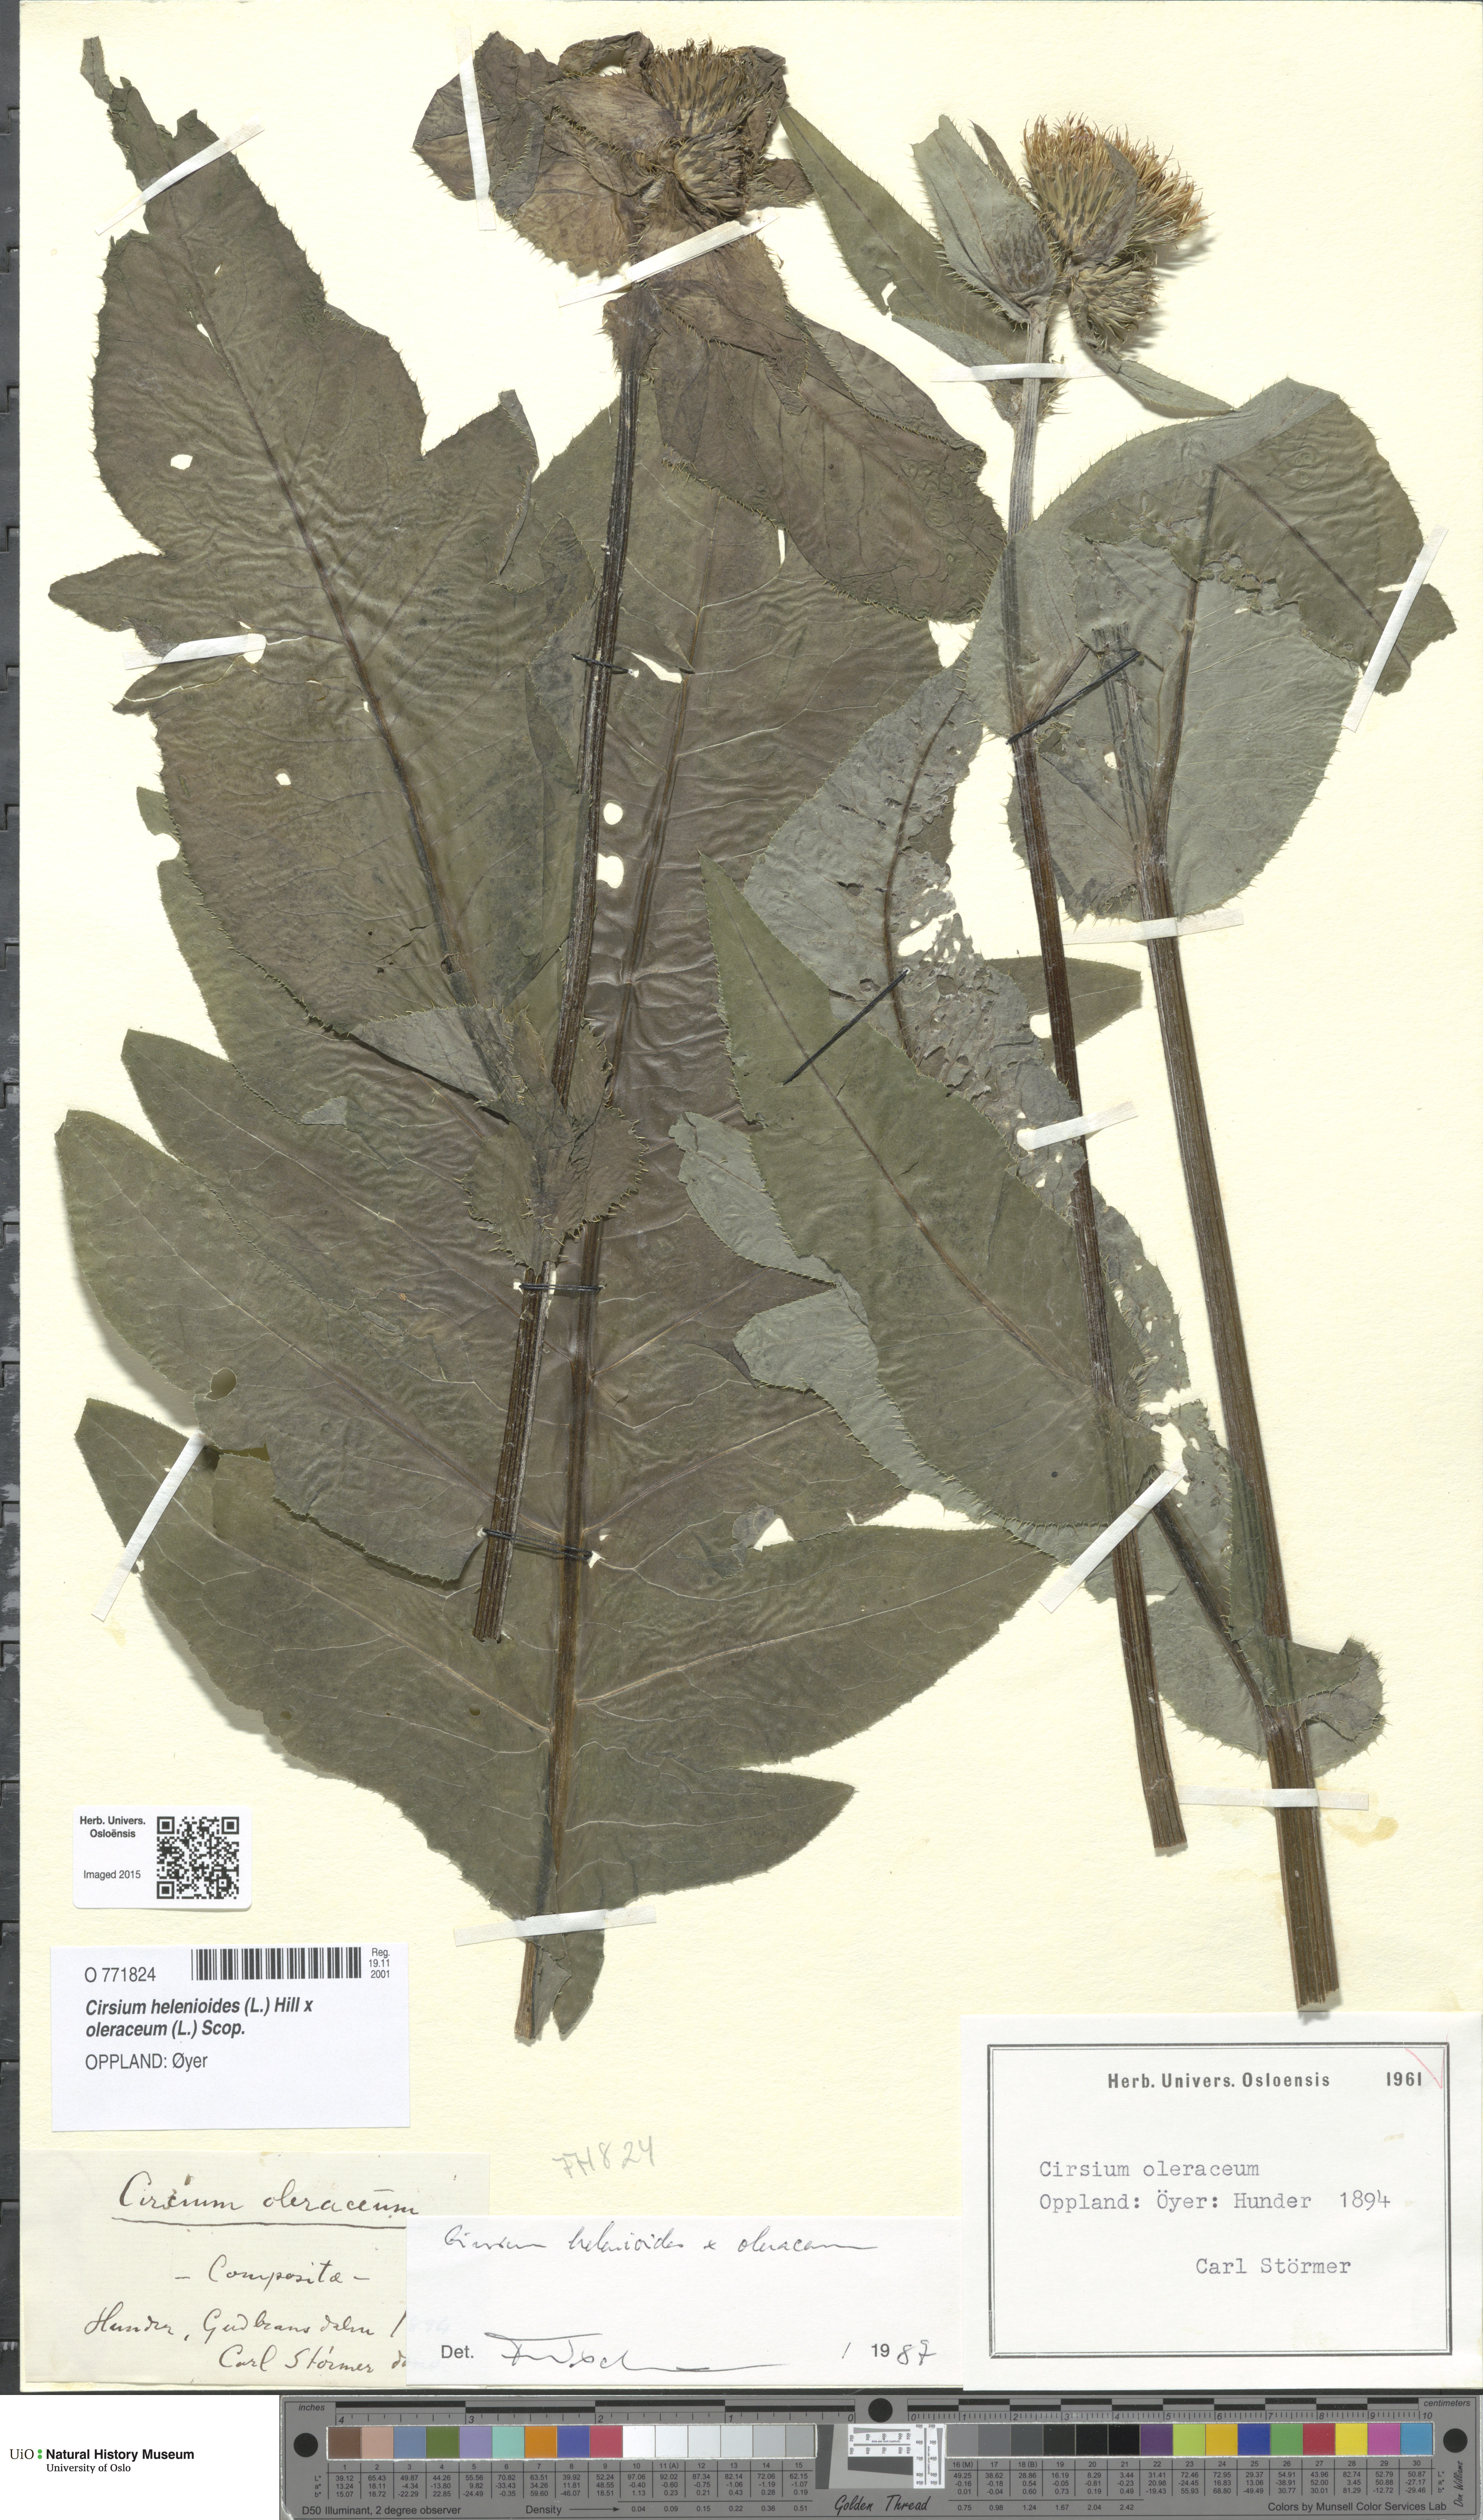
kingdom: Plantae
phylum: Tracheophyta
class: Magnoliopsida
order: Asterales
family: Asteraceae
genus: Cirsium
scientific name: Cirsium
